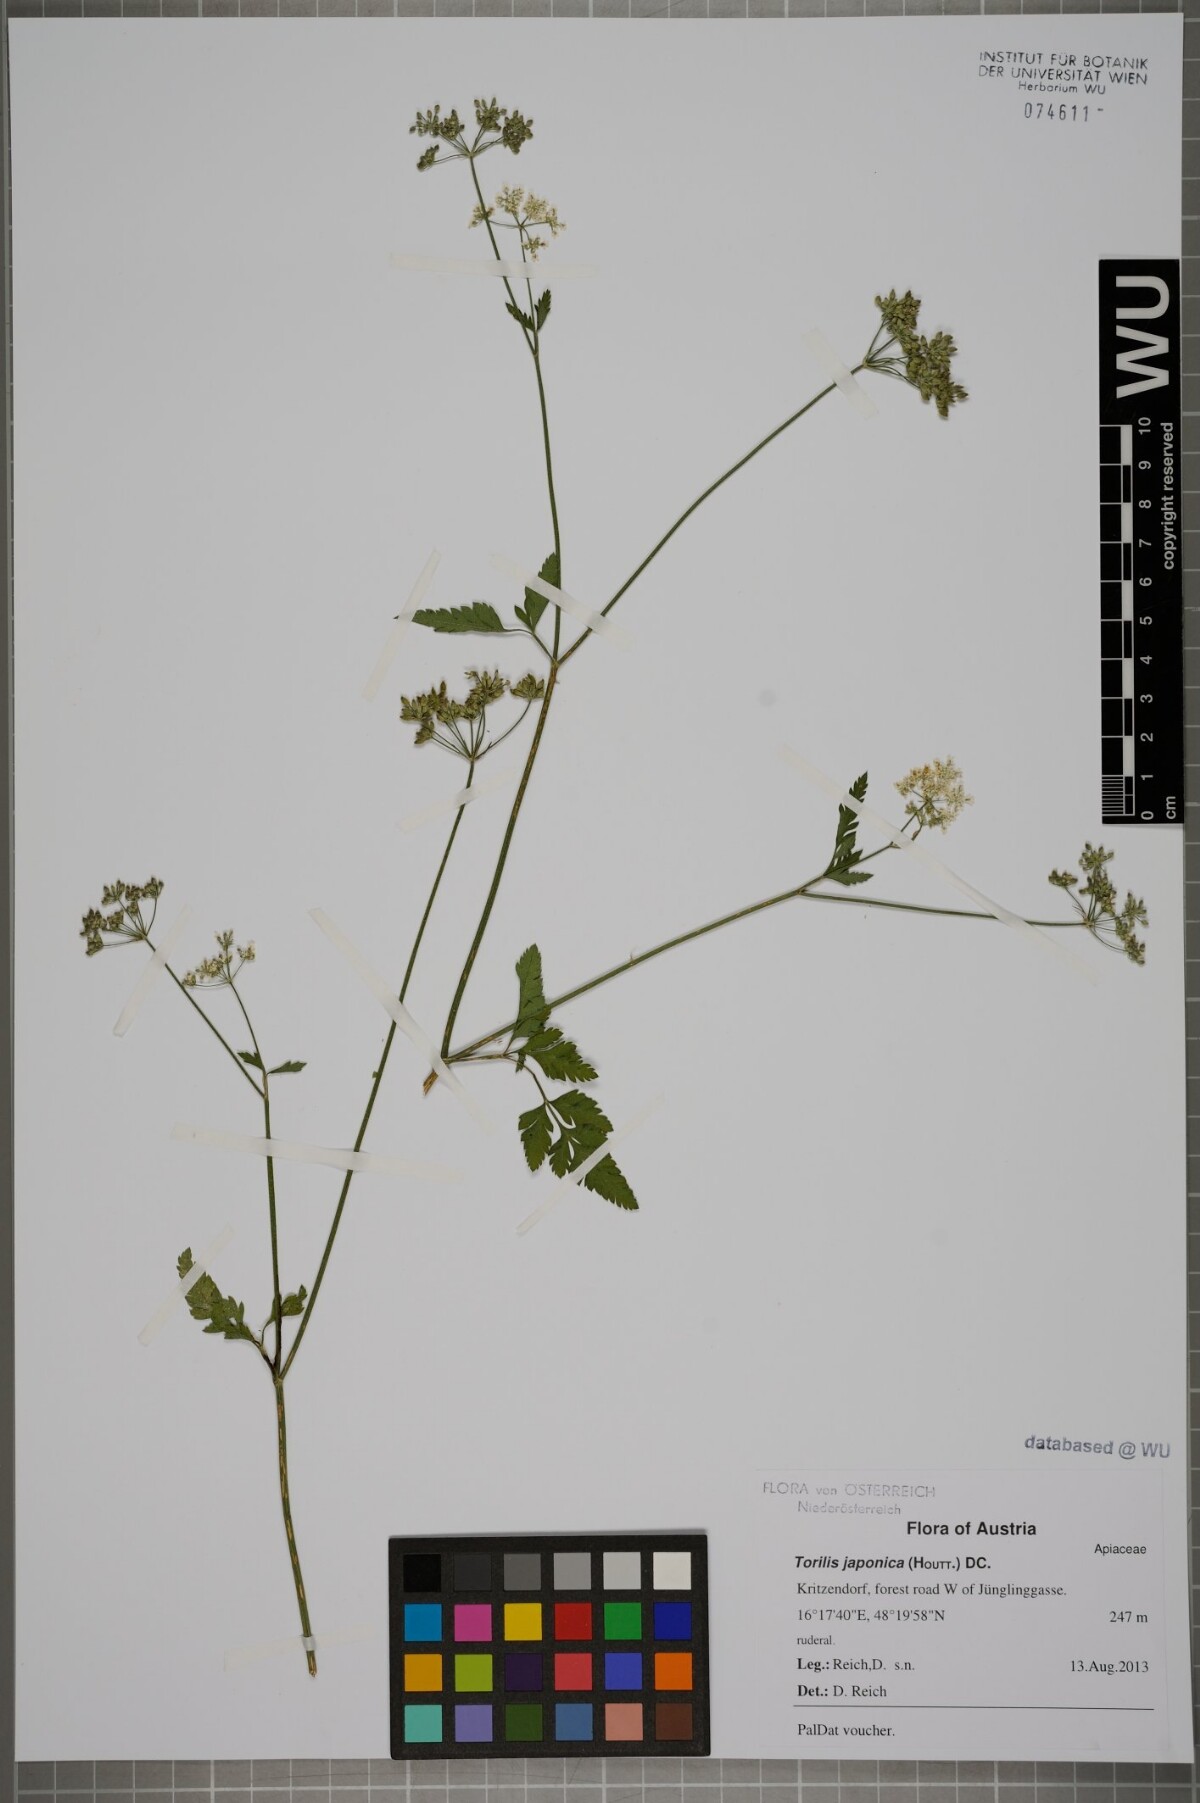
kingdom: Plantae
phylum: Tracheophyta
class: Magnoliopsida
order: Apiales
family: Apiaceae
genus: Torilis
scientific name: Torilis japonica
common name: Upright hedge-parsley
